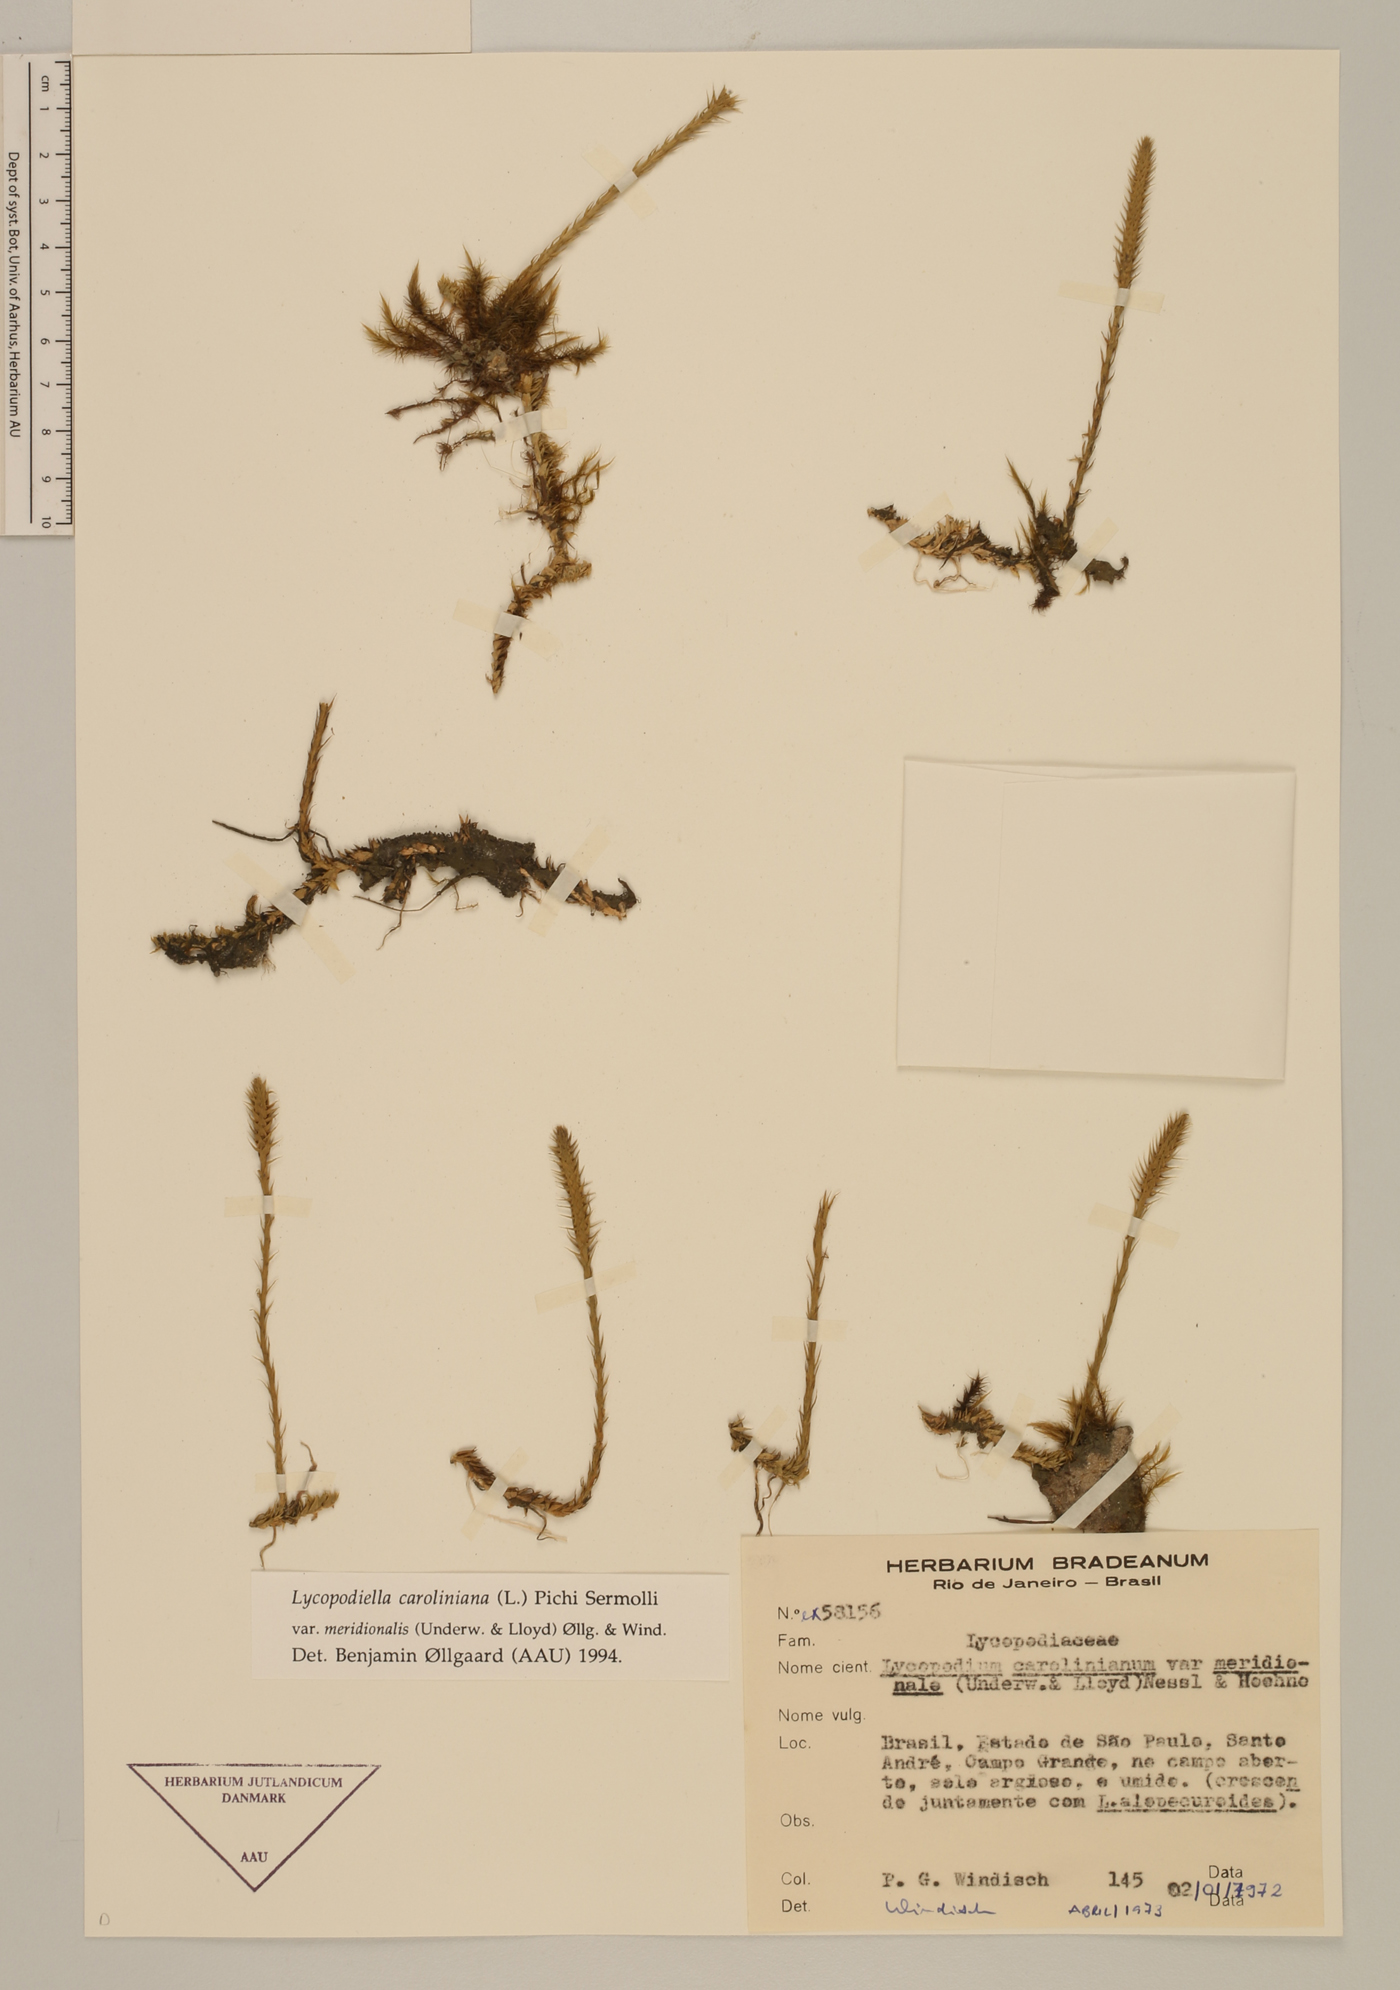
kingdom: Plantae
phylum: Tracheophyta
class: Lycopodiopsida
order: Lycopodiales
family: Lycopodiaceae
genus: Pseudolycopodiella
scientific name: Pseudolycopodiella meridionalis
